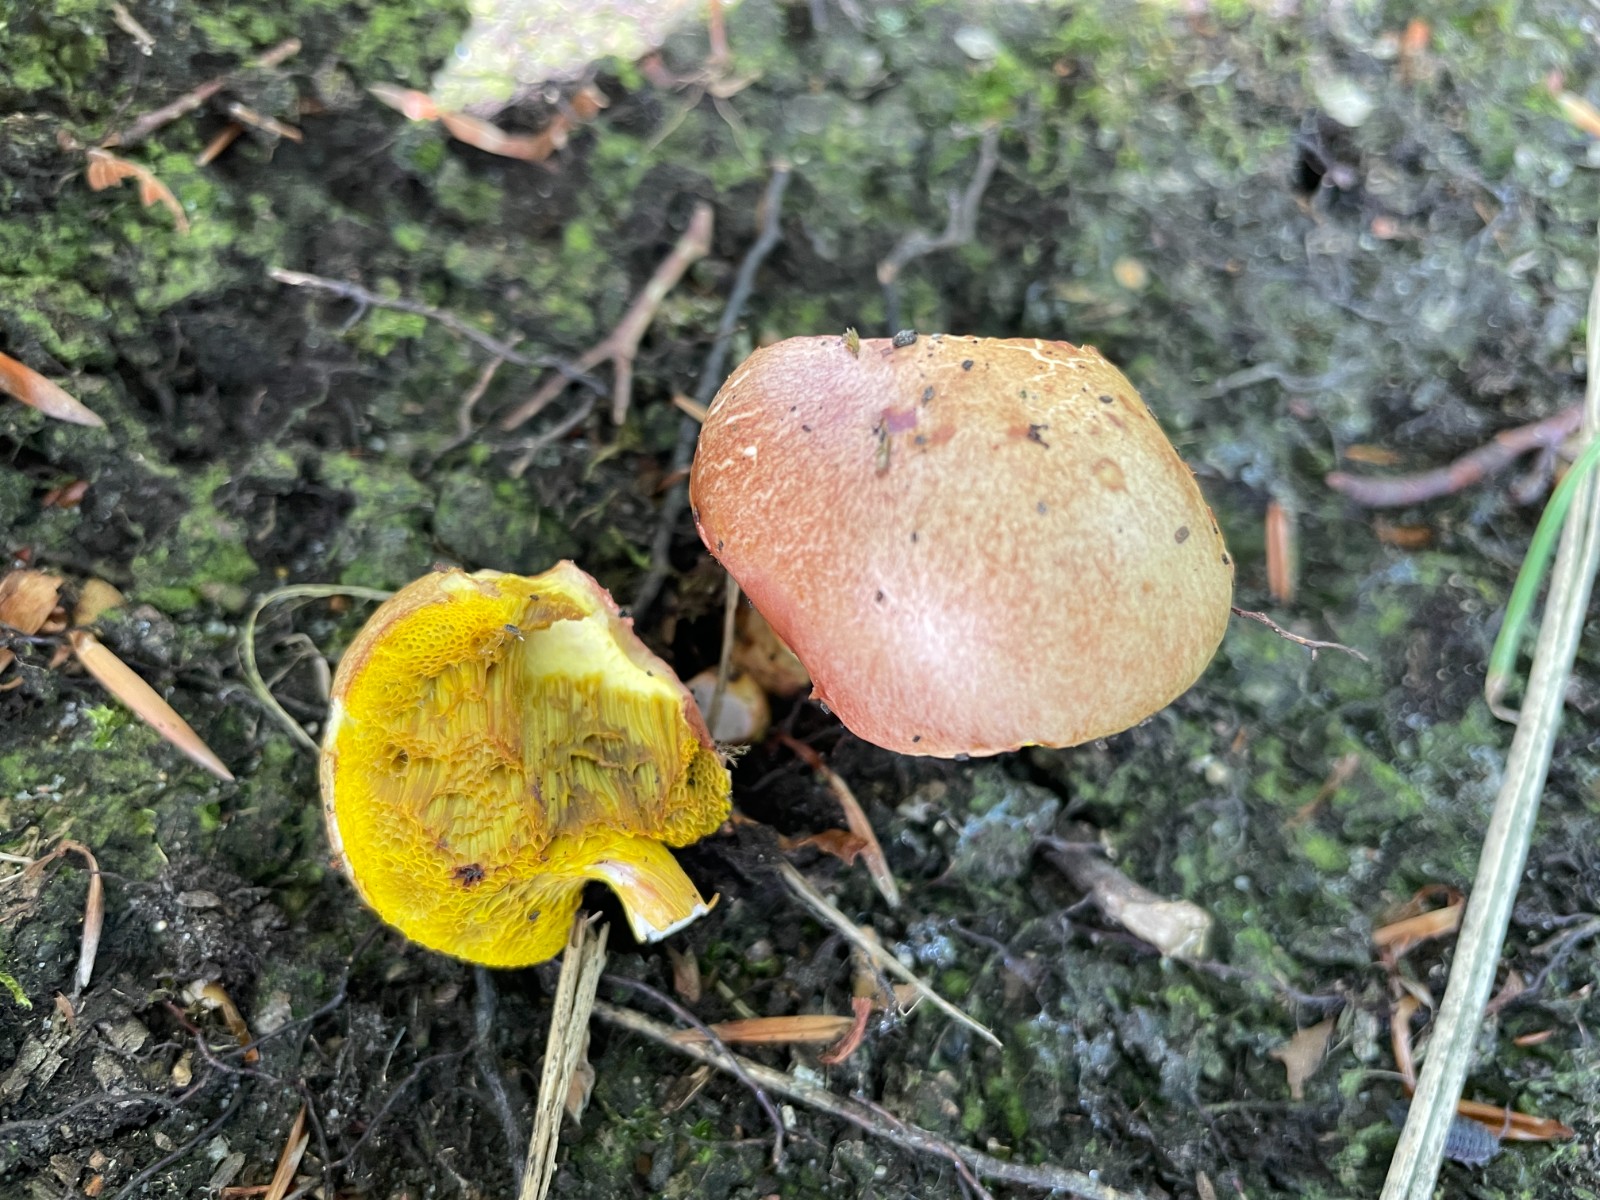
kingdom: Fungi
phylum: Basidiomycota
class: Agaricomycetes
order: Boletales
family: Boletaceae
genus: Aureoboletus
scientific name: Aureoboletus gentilis
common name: guldrørhat
